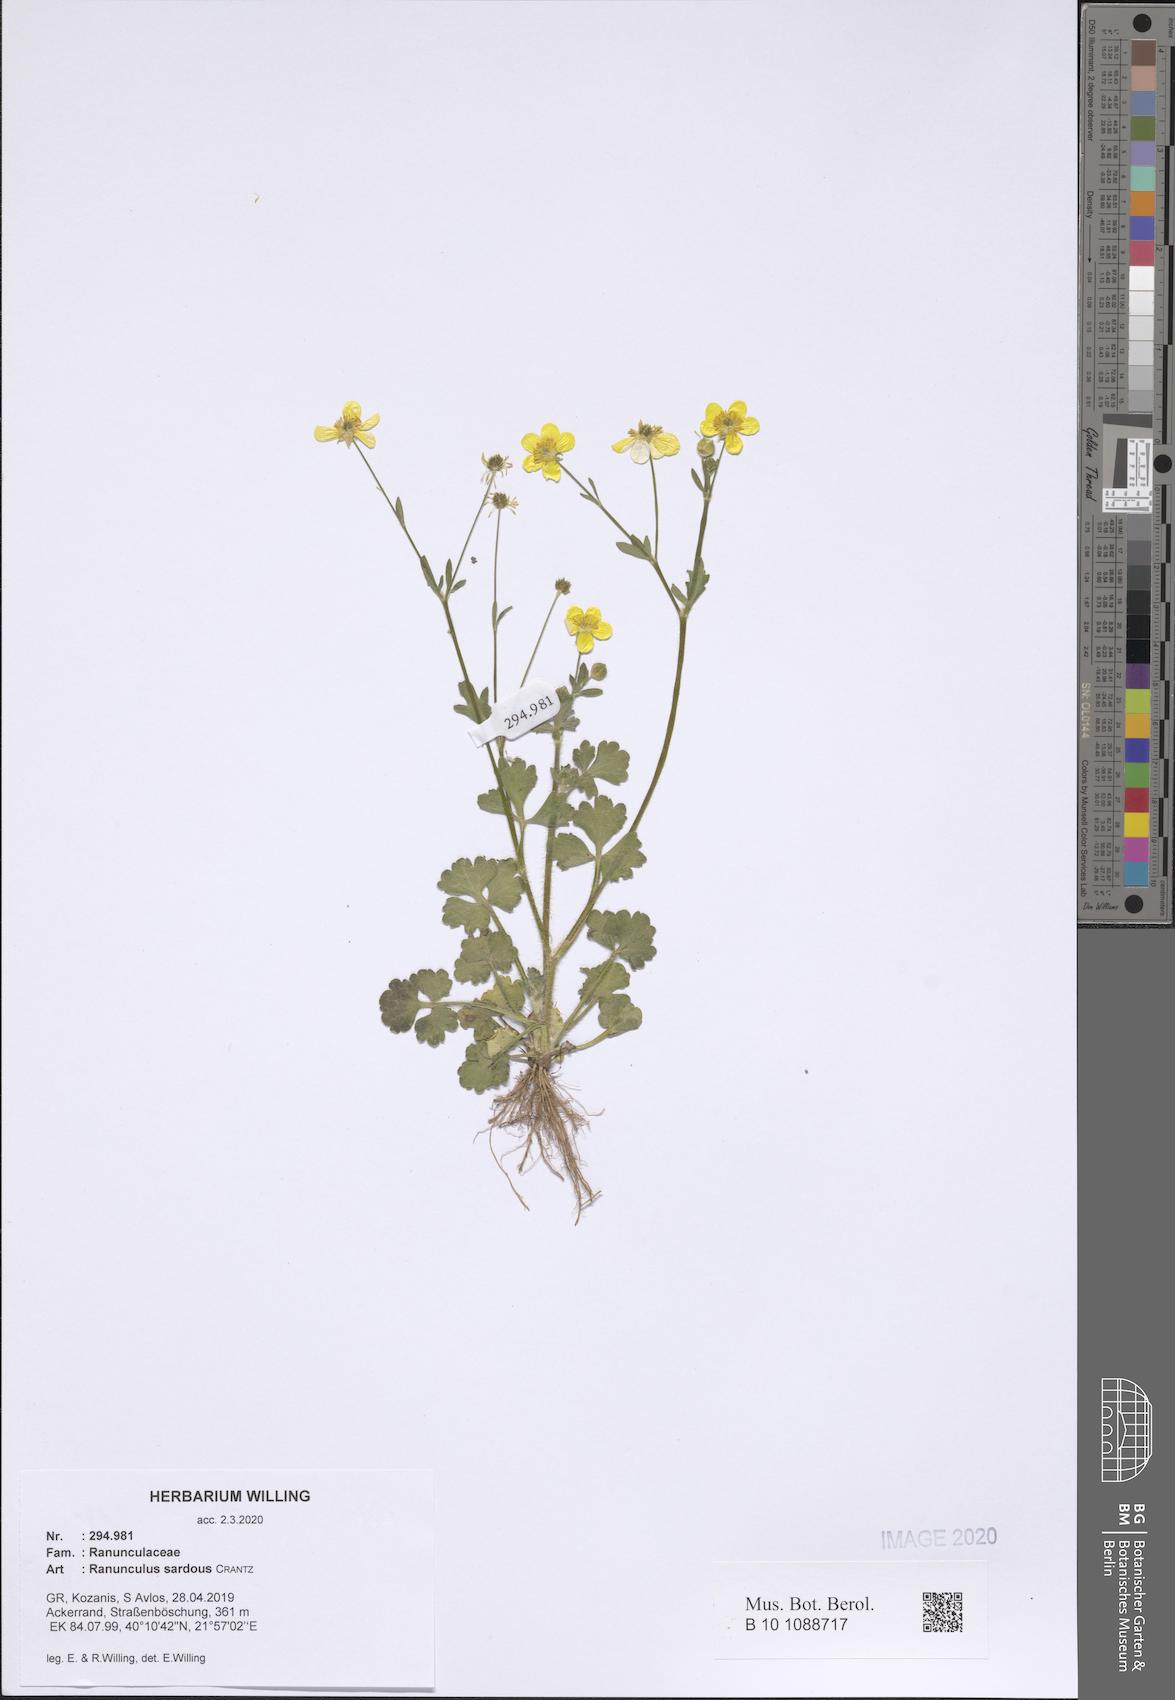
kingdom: Plantae
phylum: Tracheophyta
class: Magnoliopsida
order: Ranunculales
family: Ranunculaceae
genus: Ranunculus
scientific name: Ranunculus sardous
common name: Hairy buttercup
